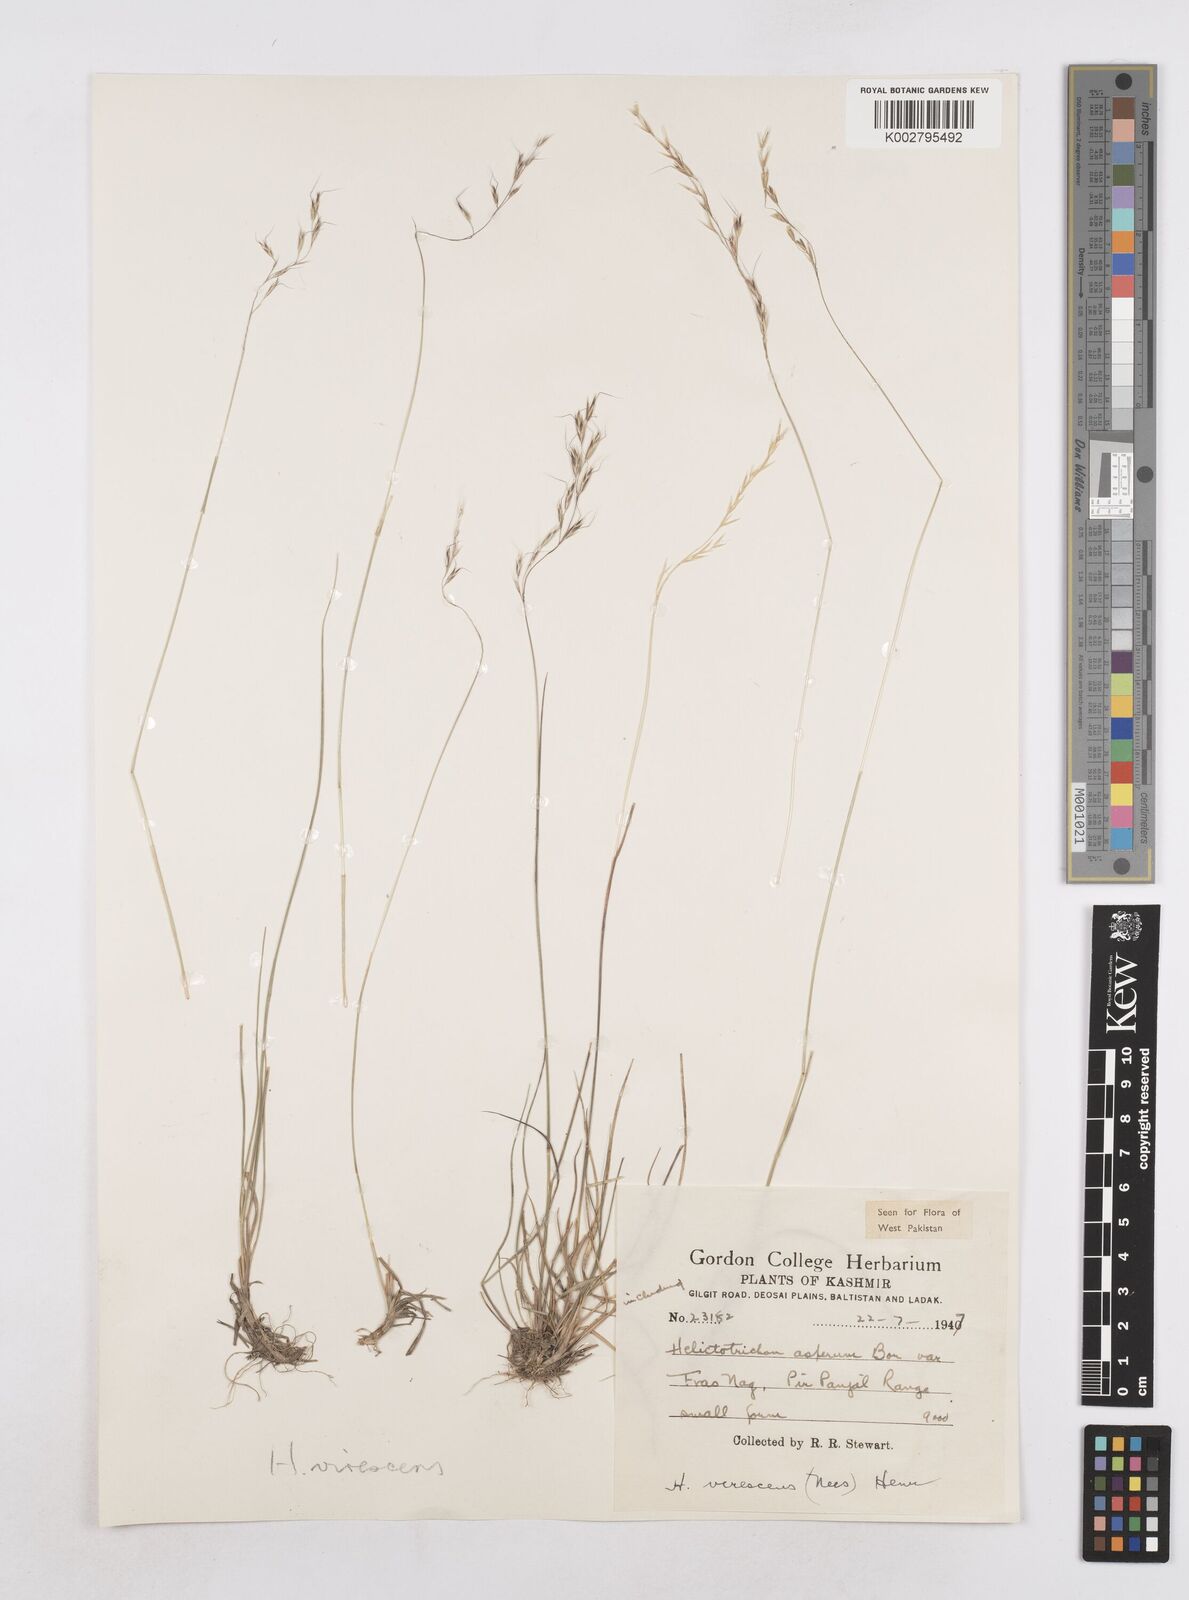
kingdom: Plantae
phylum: Tracheophyta
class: Liliopsida
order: Poales
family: Poaceae
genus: Trisetopsis
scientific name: Trisetopsis junghuhnii
